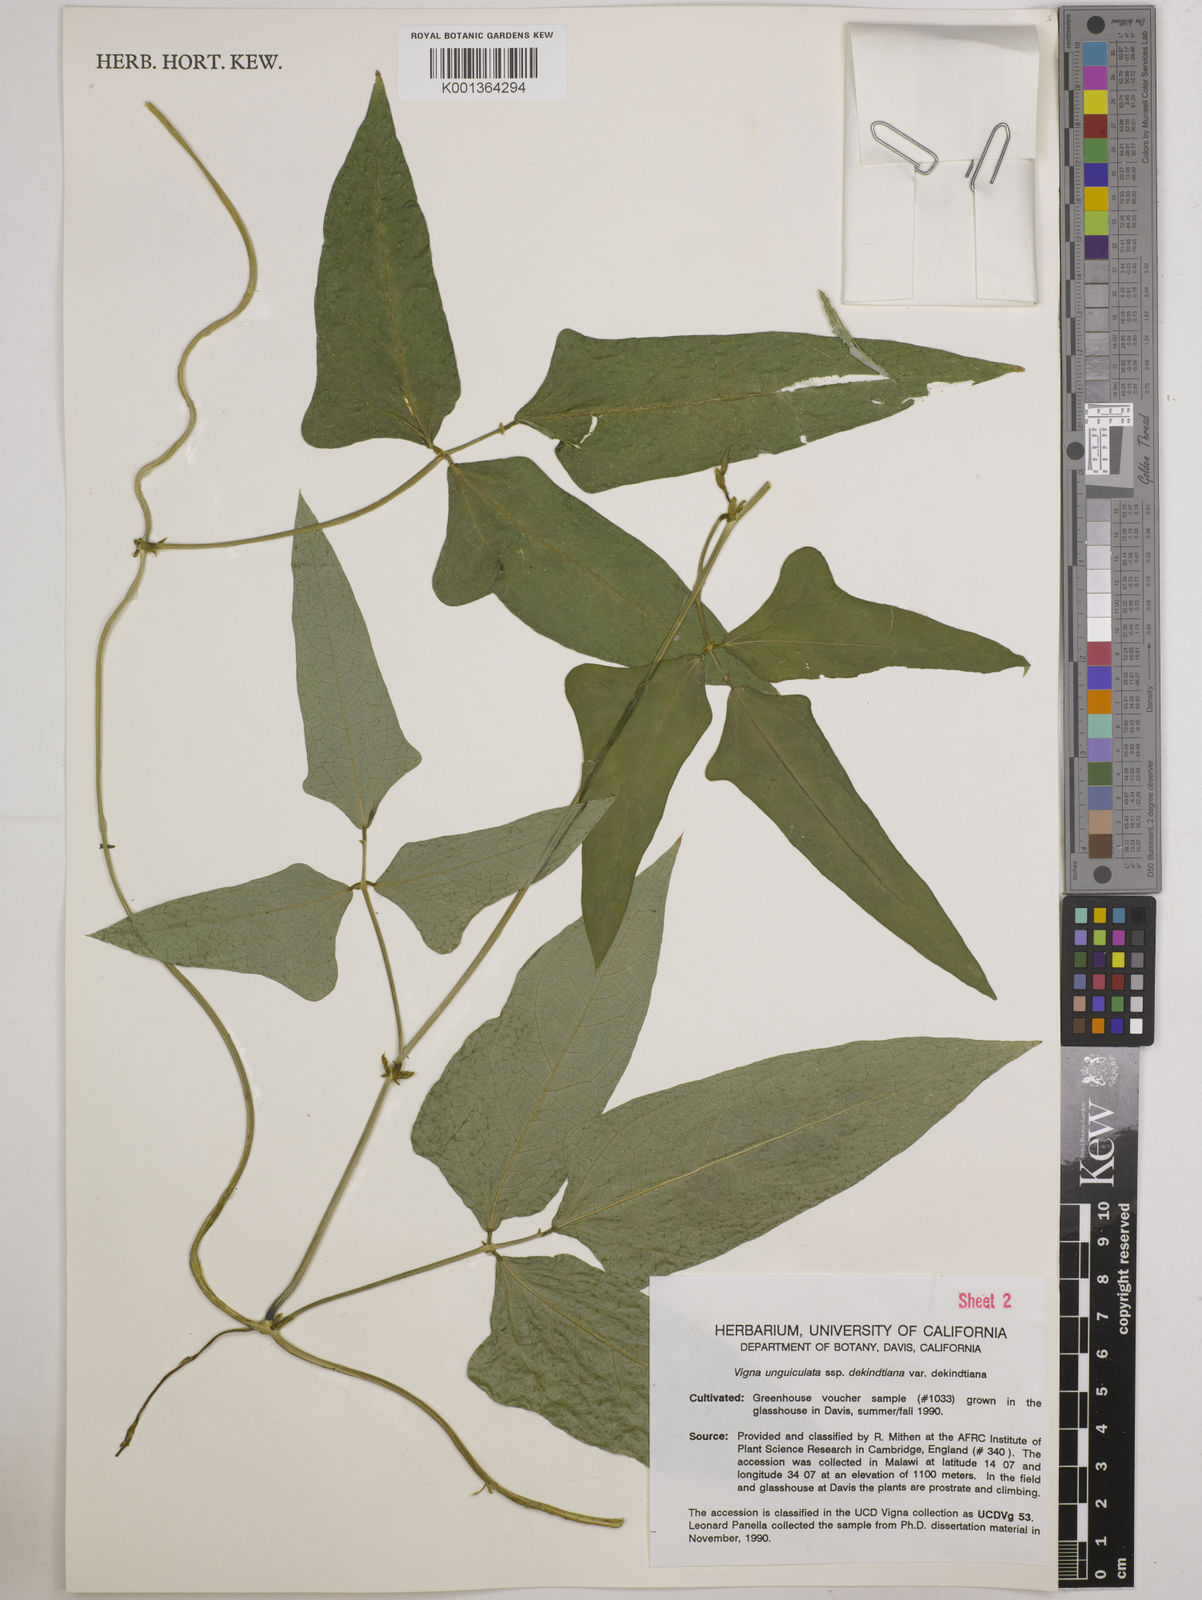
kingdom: Plantae
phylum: Tracheophyta
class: Magnoliopsida
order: Fabales
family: Fabaceae
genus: Vigna
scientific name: Vigna
